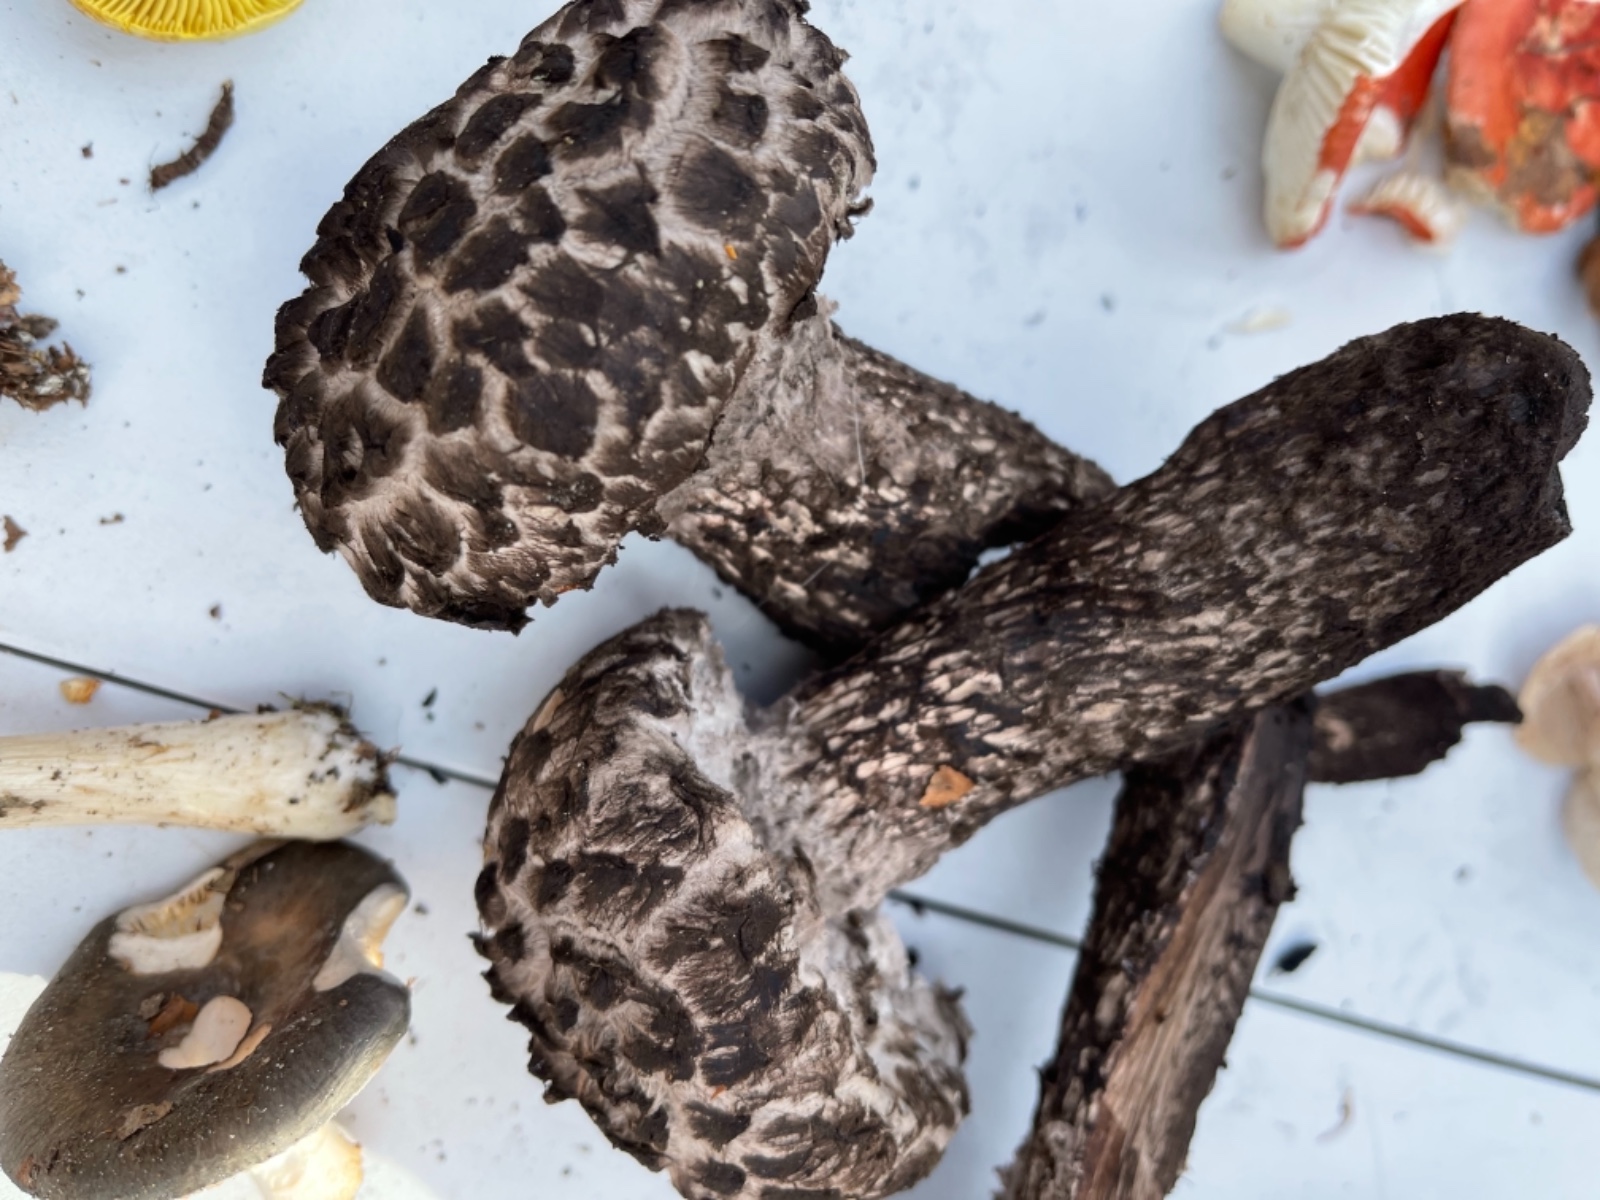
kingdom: Fungi
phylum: Basidiomycota
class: Agaricomycetes
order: Boletales
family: Boletaceae
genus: Strobilomyces
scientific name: Strobilomyces strobilaceus
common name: koglerørhat
